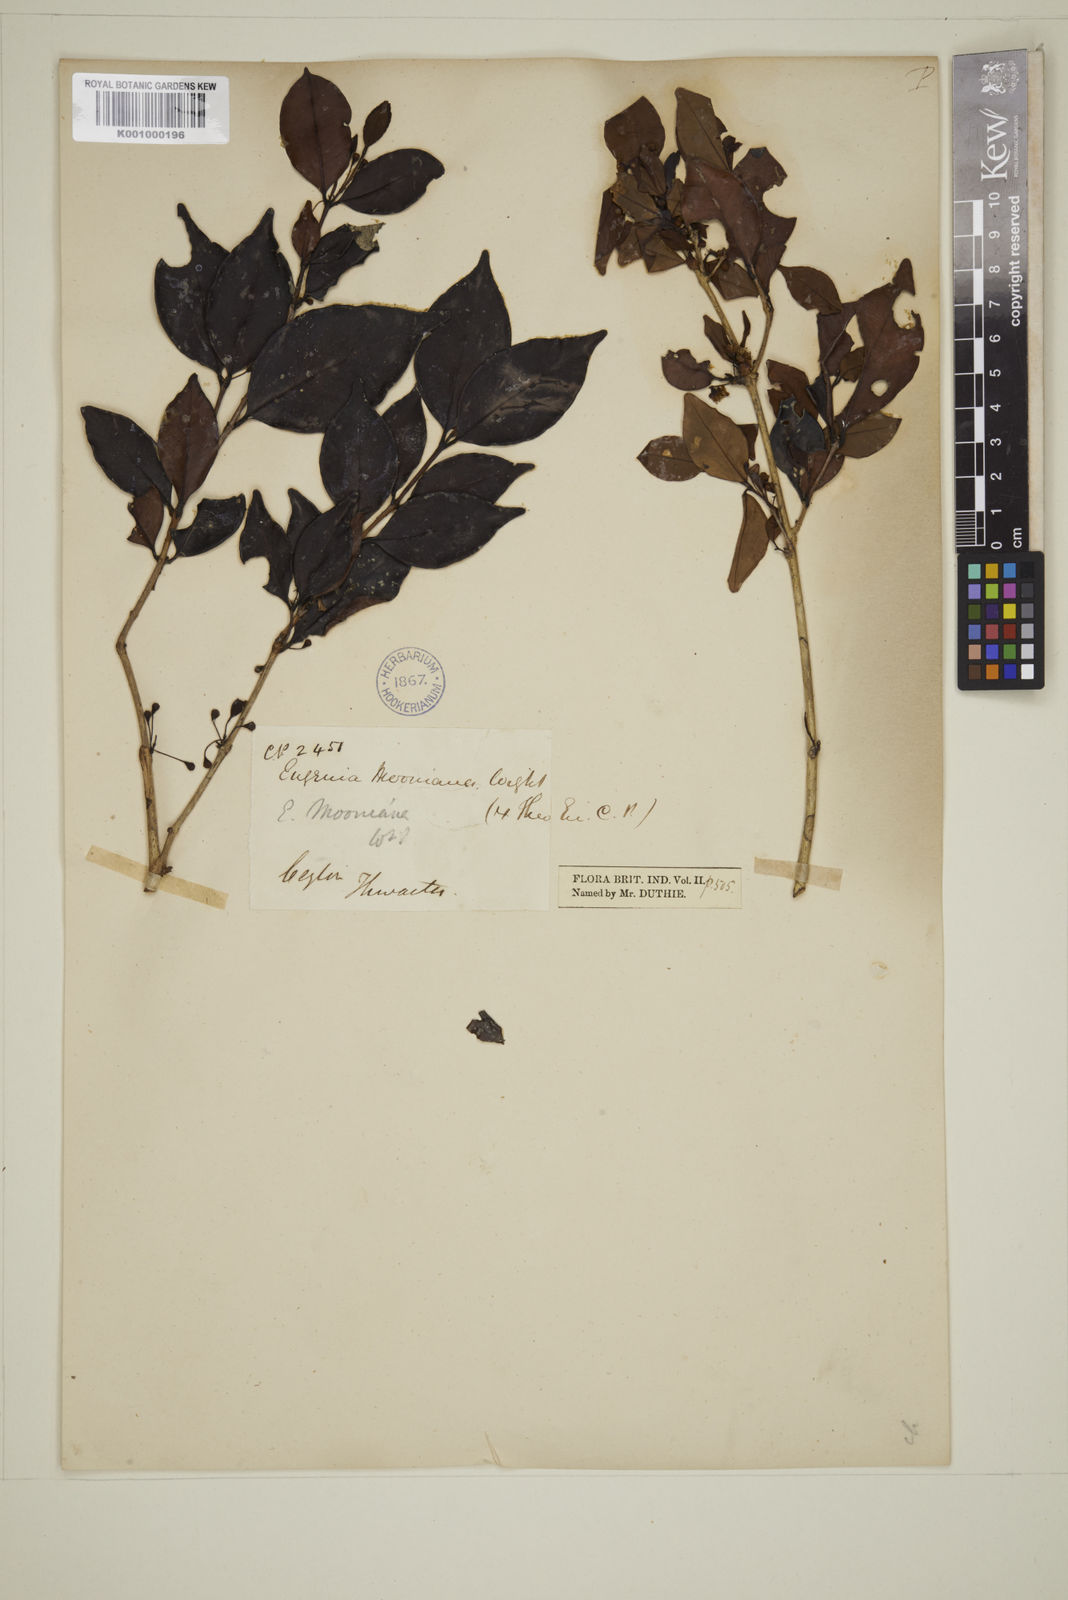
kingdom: Plantae
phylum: Tracheophyta
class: Magnoliopsida
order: Myrtales
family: Myrtaceae
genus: Eugenia
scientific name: Eugenia thwaitesii
